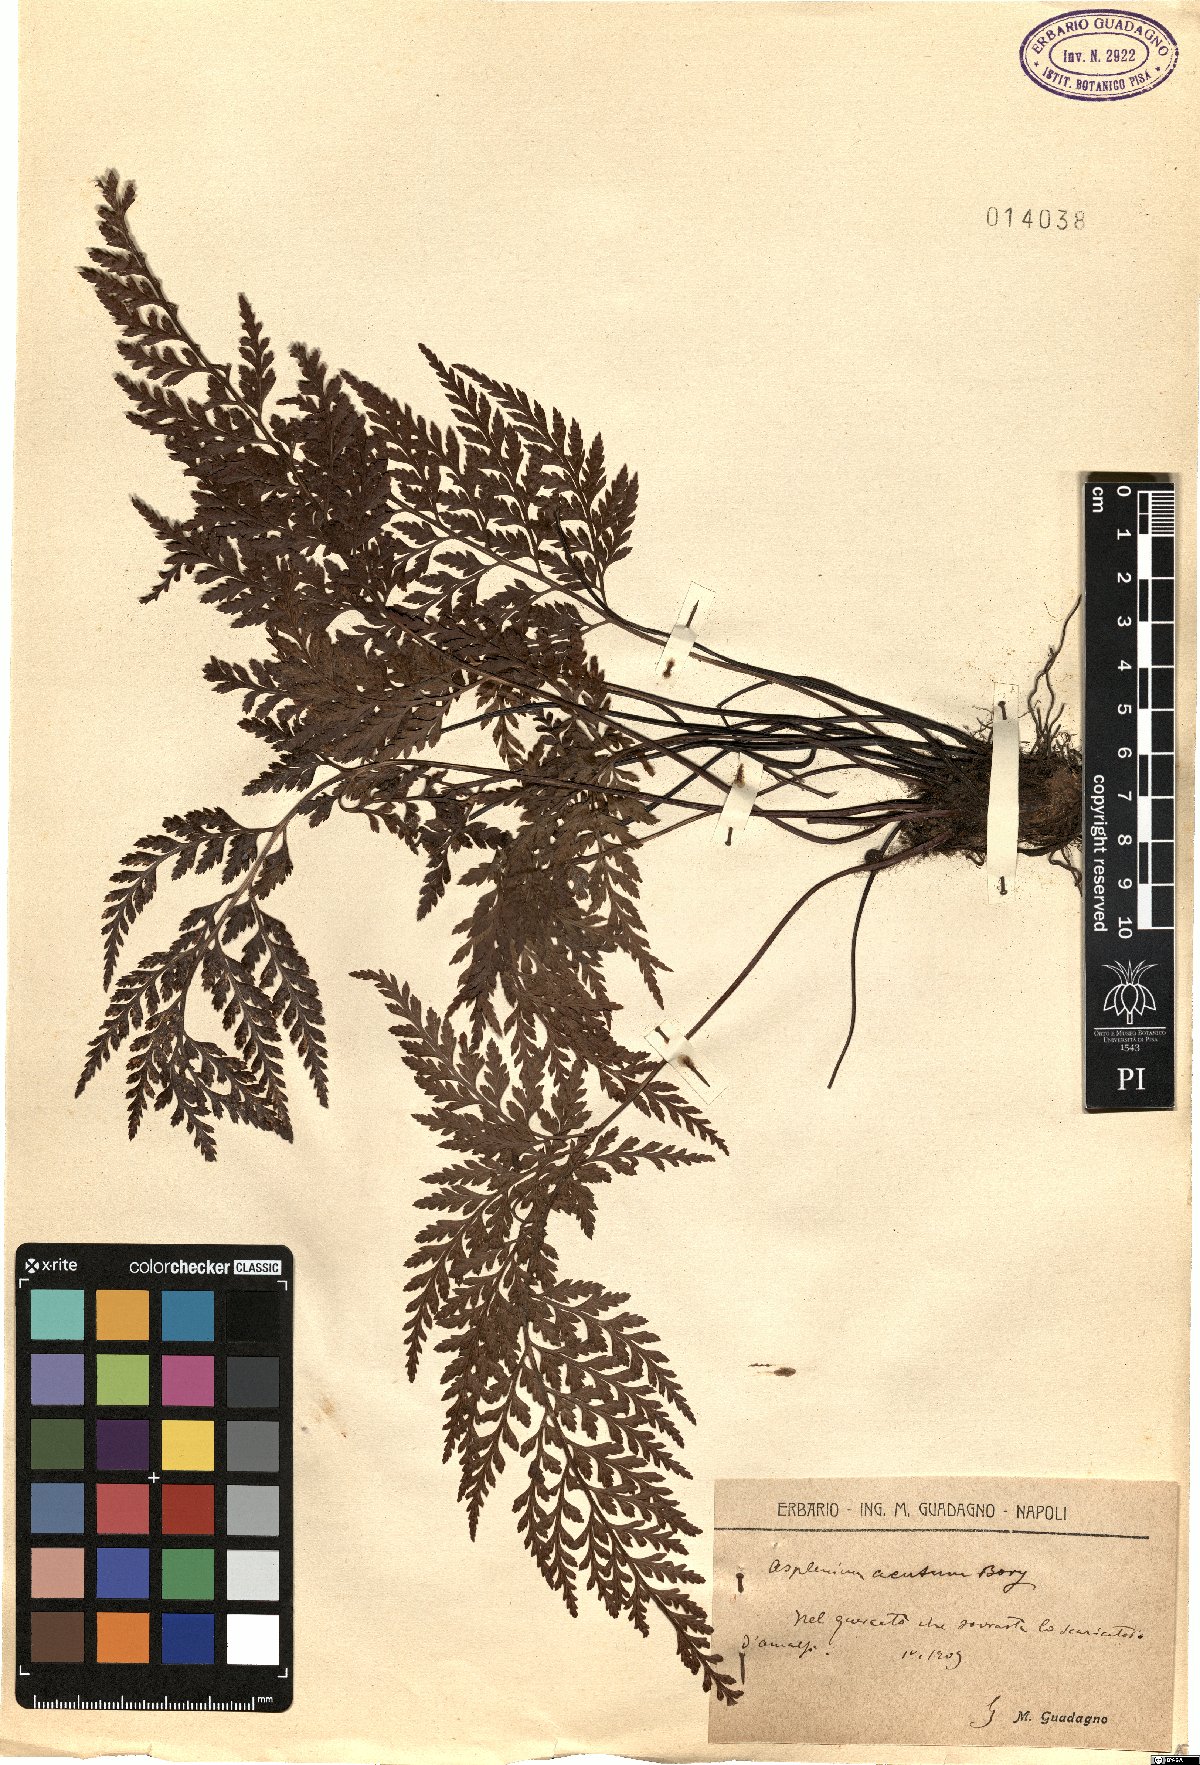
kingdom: Plantae
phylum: Tracheophyta
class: Polypodiopsida
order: Polypodiales
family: Aspleniaceae
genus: Asplenium
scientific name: Asplenium onopteris
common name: Irish spleenwort
